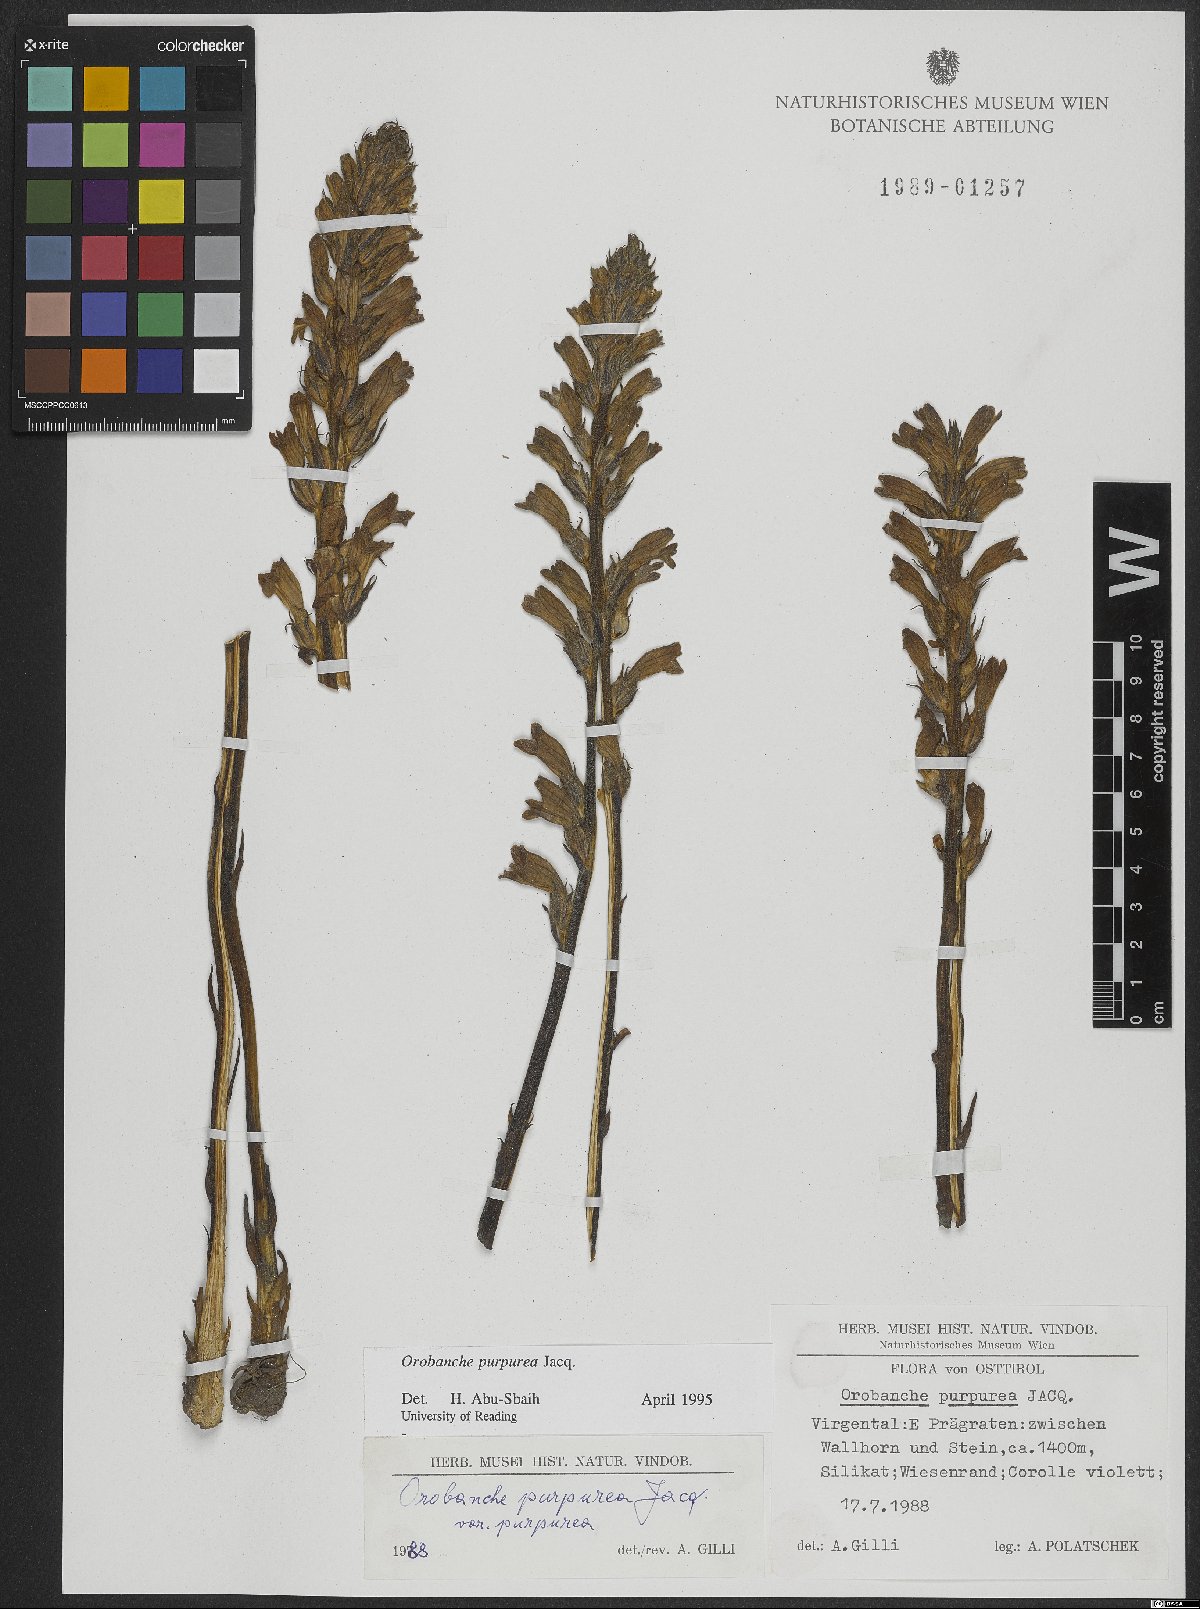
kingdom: Plantae
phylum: Tracheophyta
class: Magnoliopsida
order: Lamiales
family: Orobanchaceae
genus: Phelipanche
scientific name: Phelipanche purpurea
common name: Purple broomrape
